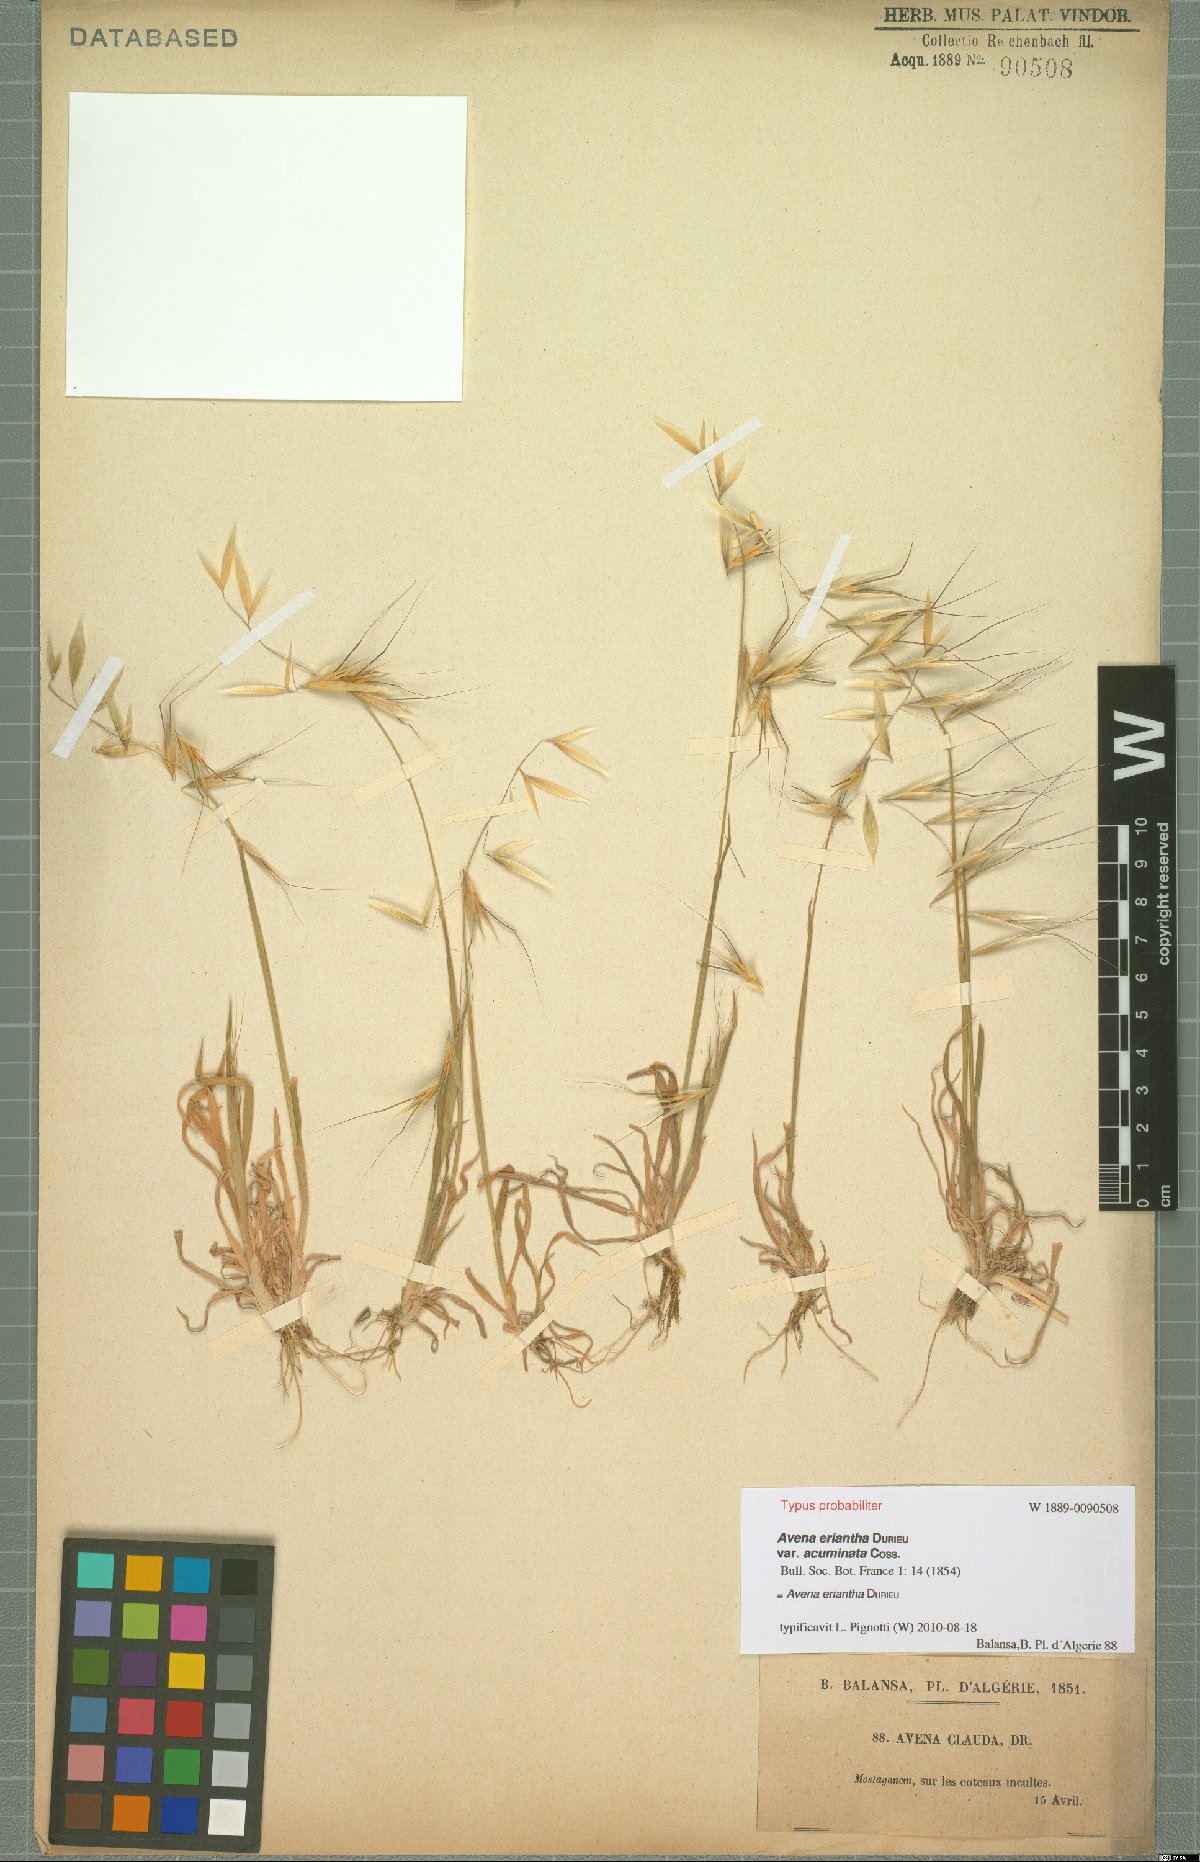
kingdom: Plantae
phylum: Tracheophyta
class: Liliopsida
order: Poales
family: Poaceae
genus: Avena
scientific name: Avena eriantha
